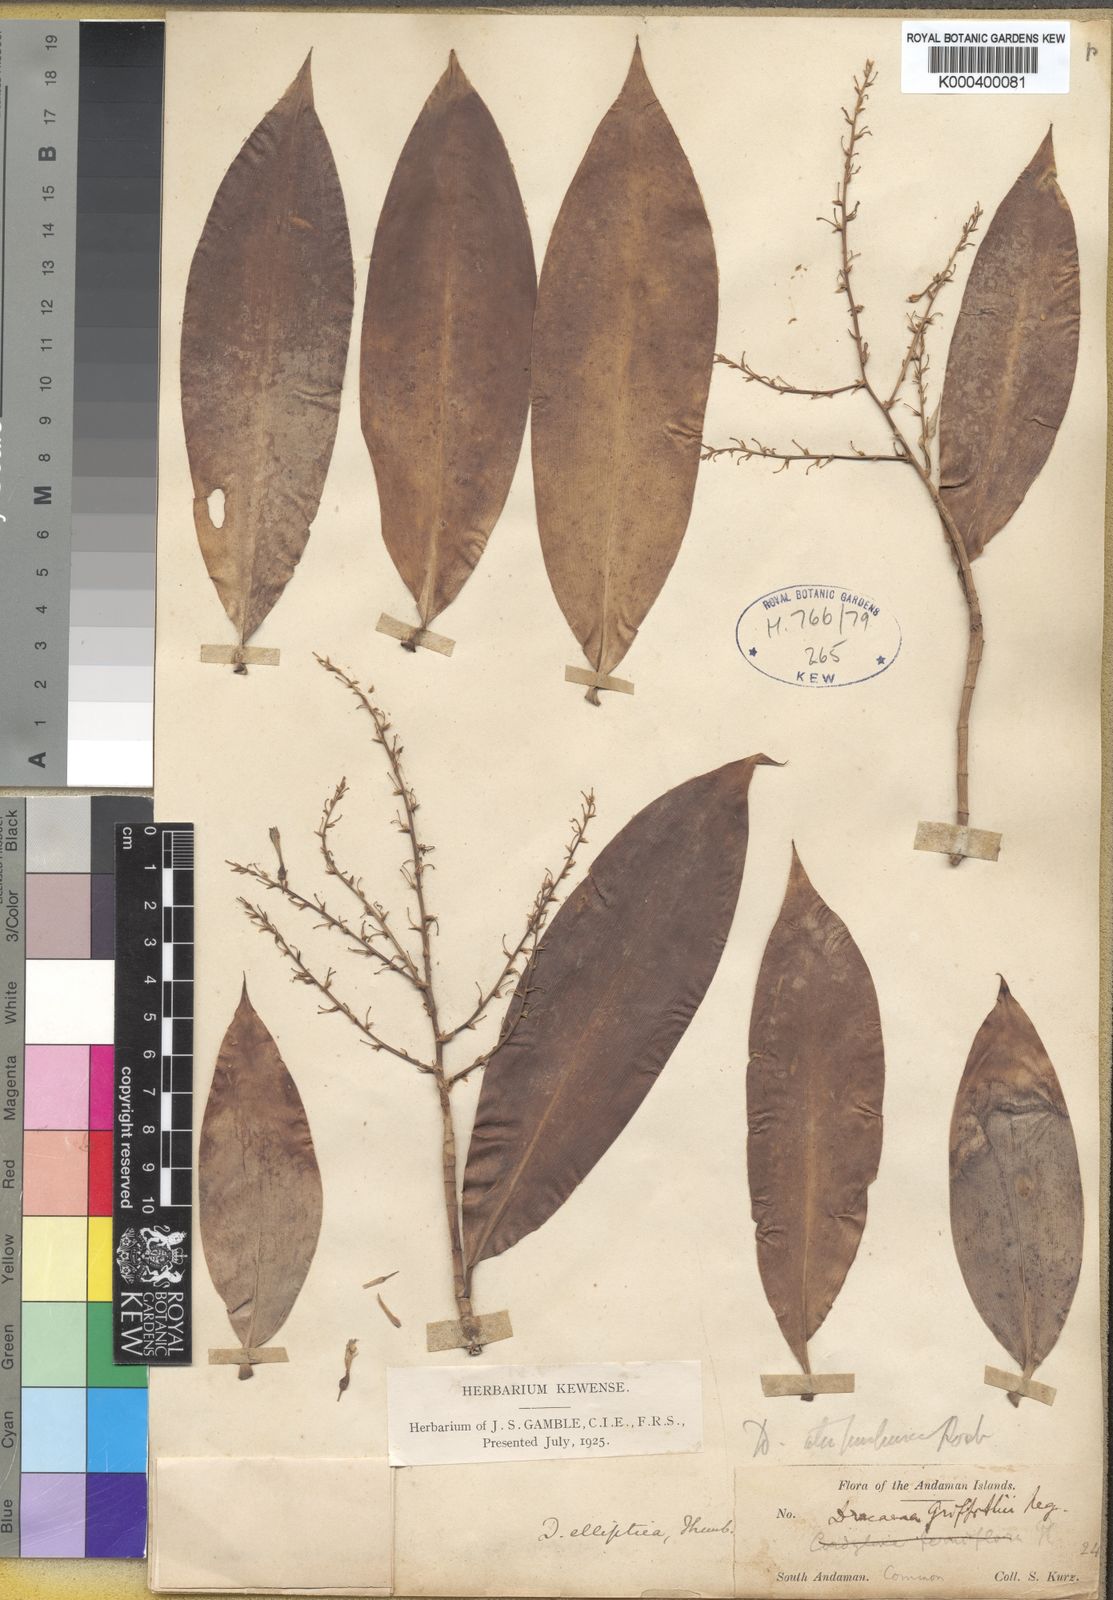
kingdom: Plantae
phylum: Tracheophyta
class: Liliopsida
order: Asparagales
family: Asparagaceae
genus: Dracaena
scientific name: Dracaena elliptica
